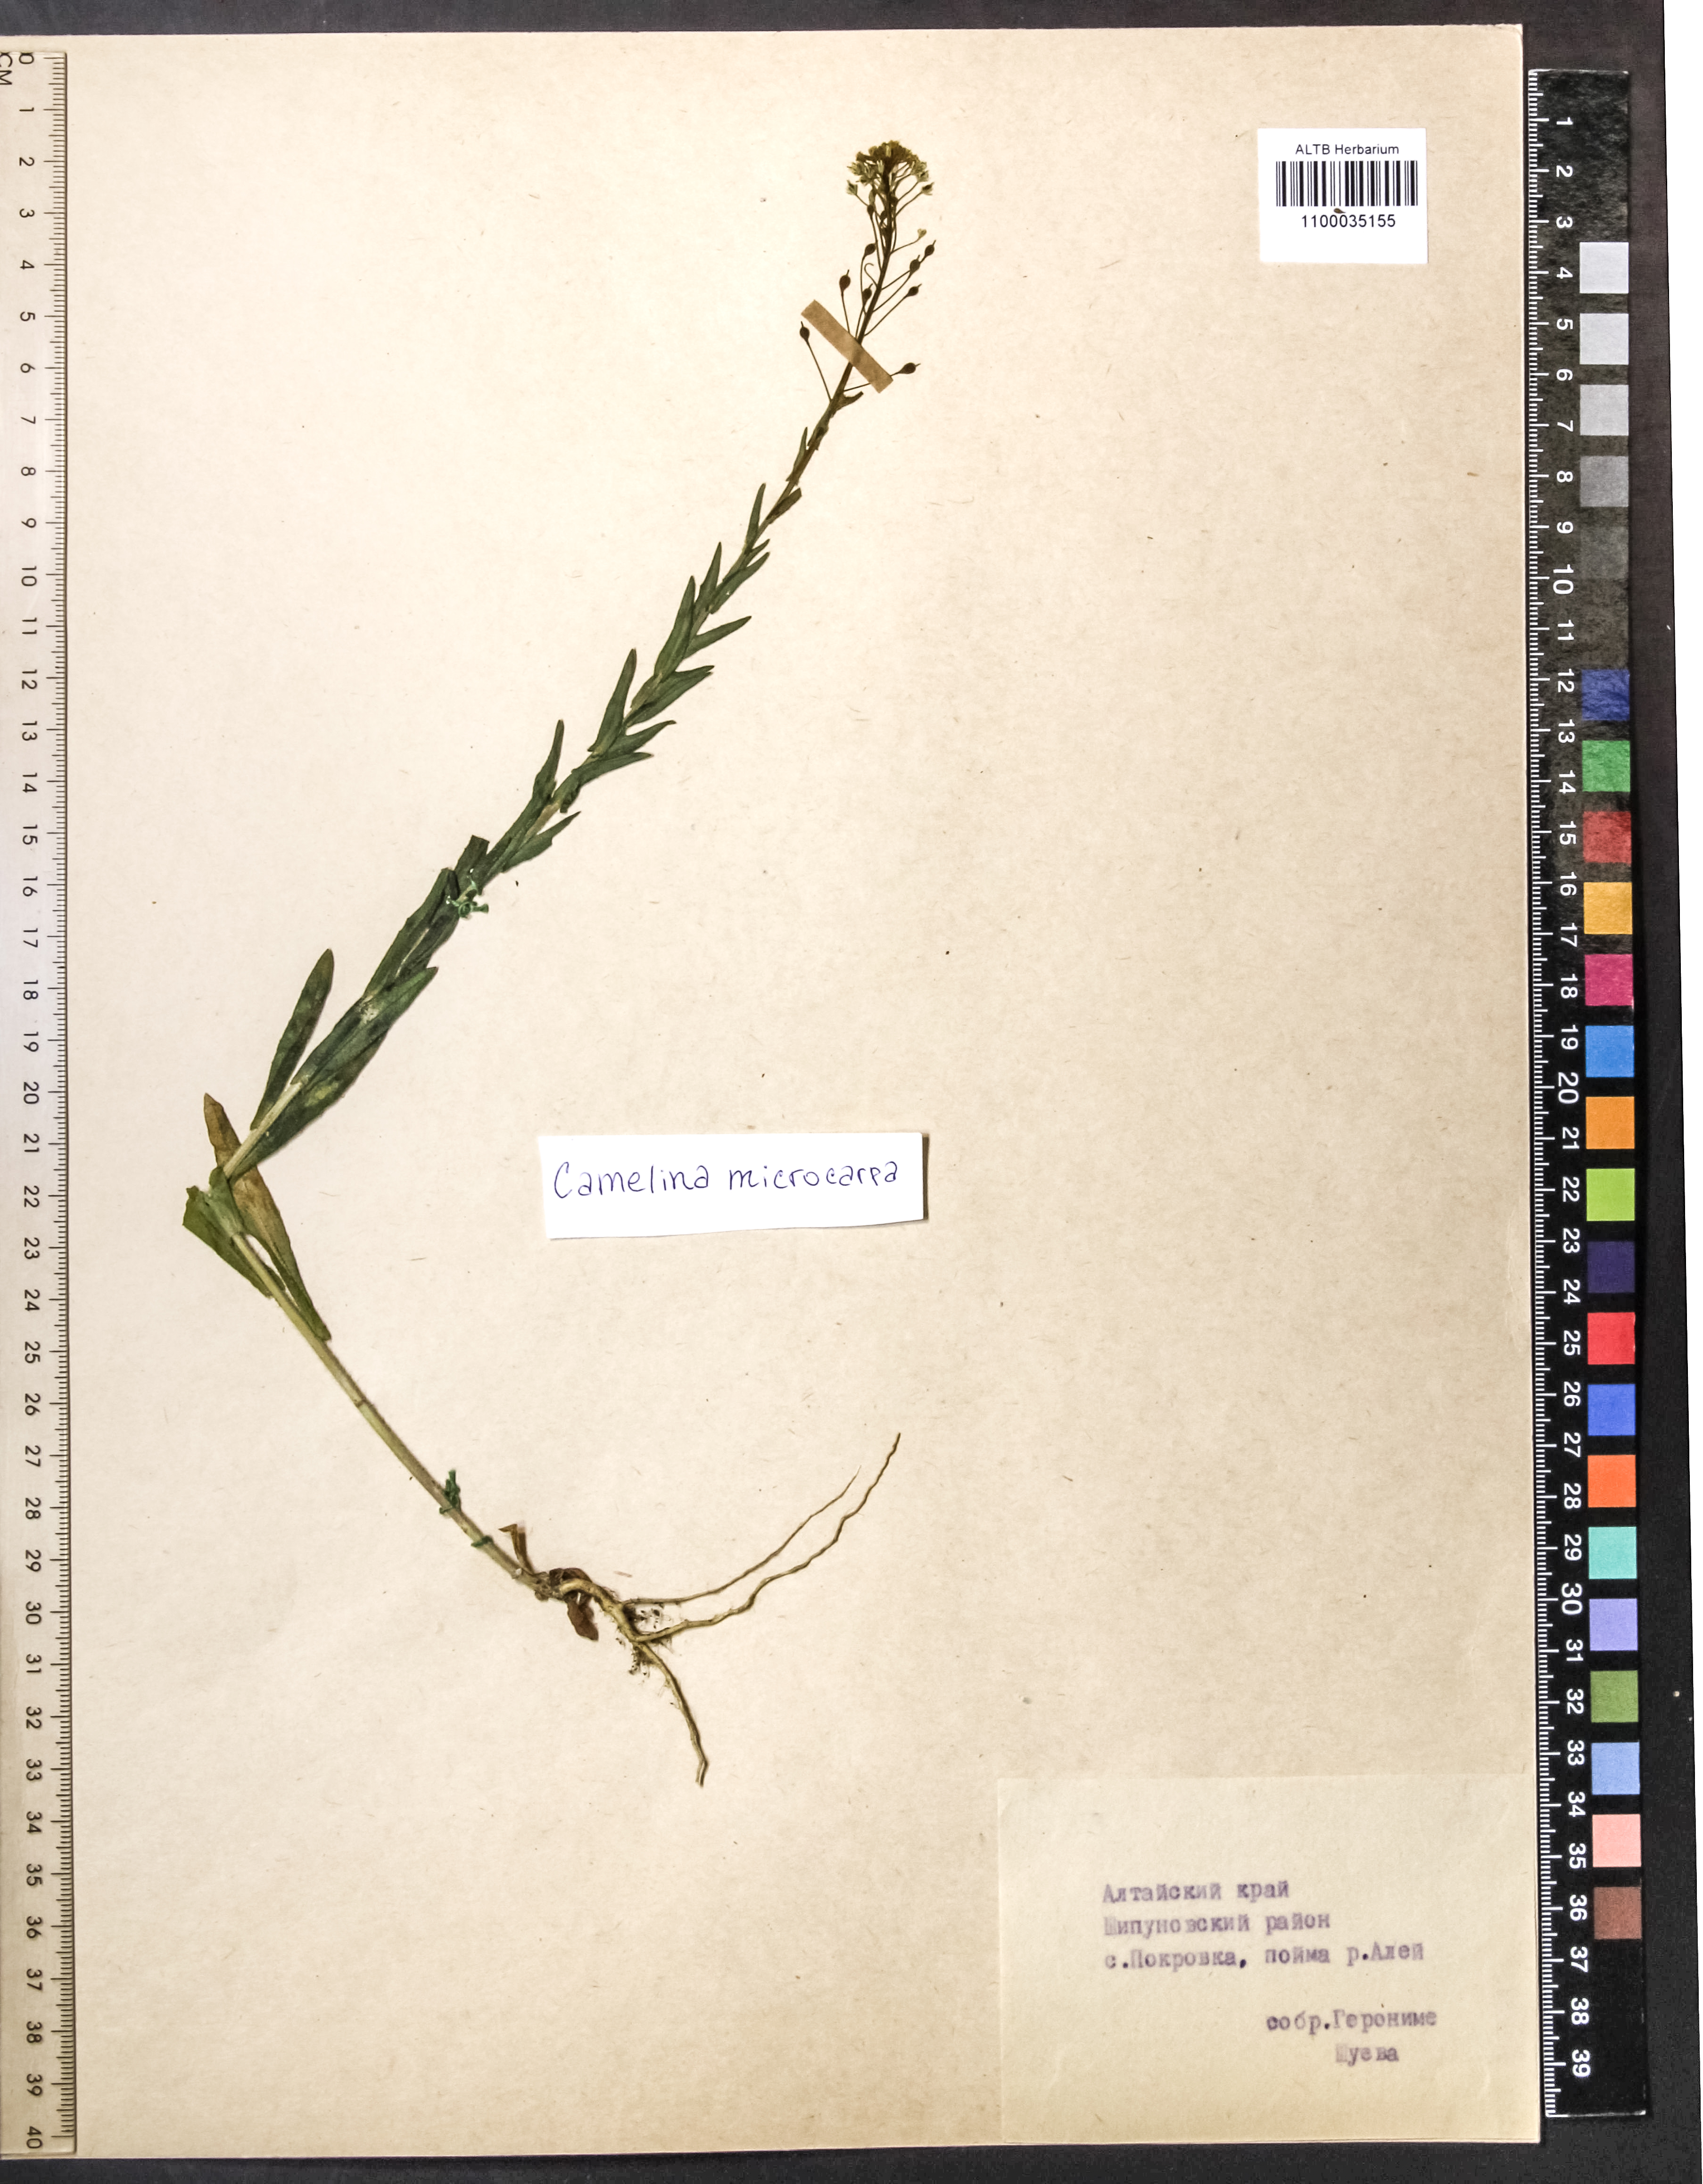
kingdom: Plantae
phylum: Tracheophyta
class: Magnoliopsida
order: Brassicales
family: Brassicaceae
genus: Camelina
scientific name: Camelina microcarpa
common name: Lesser gold-of-pleasure
